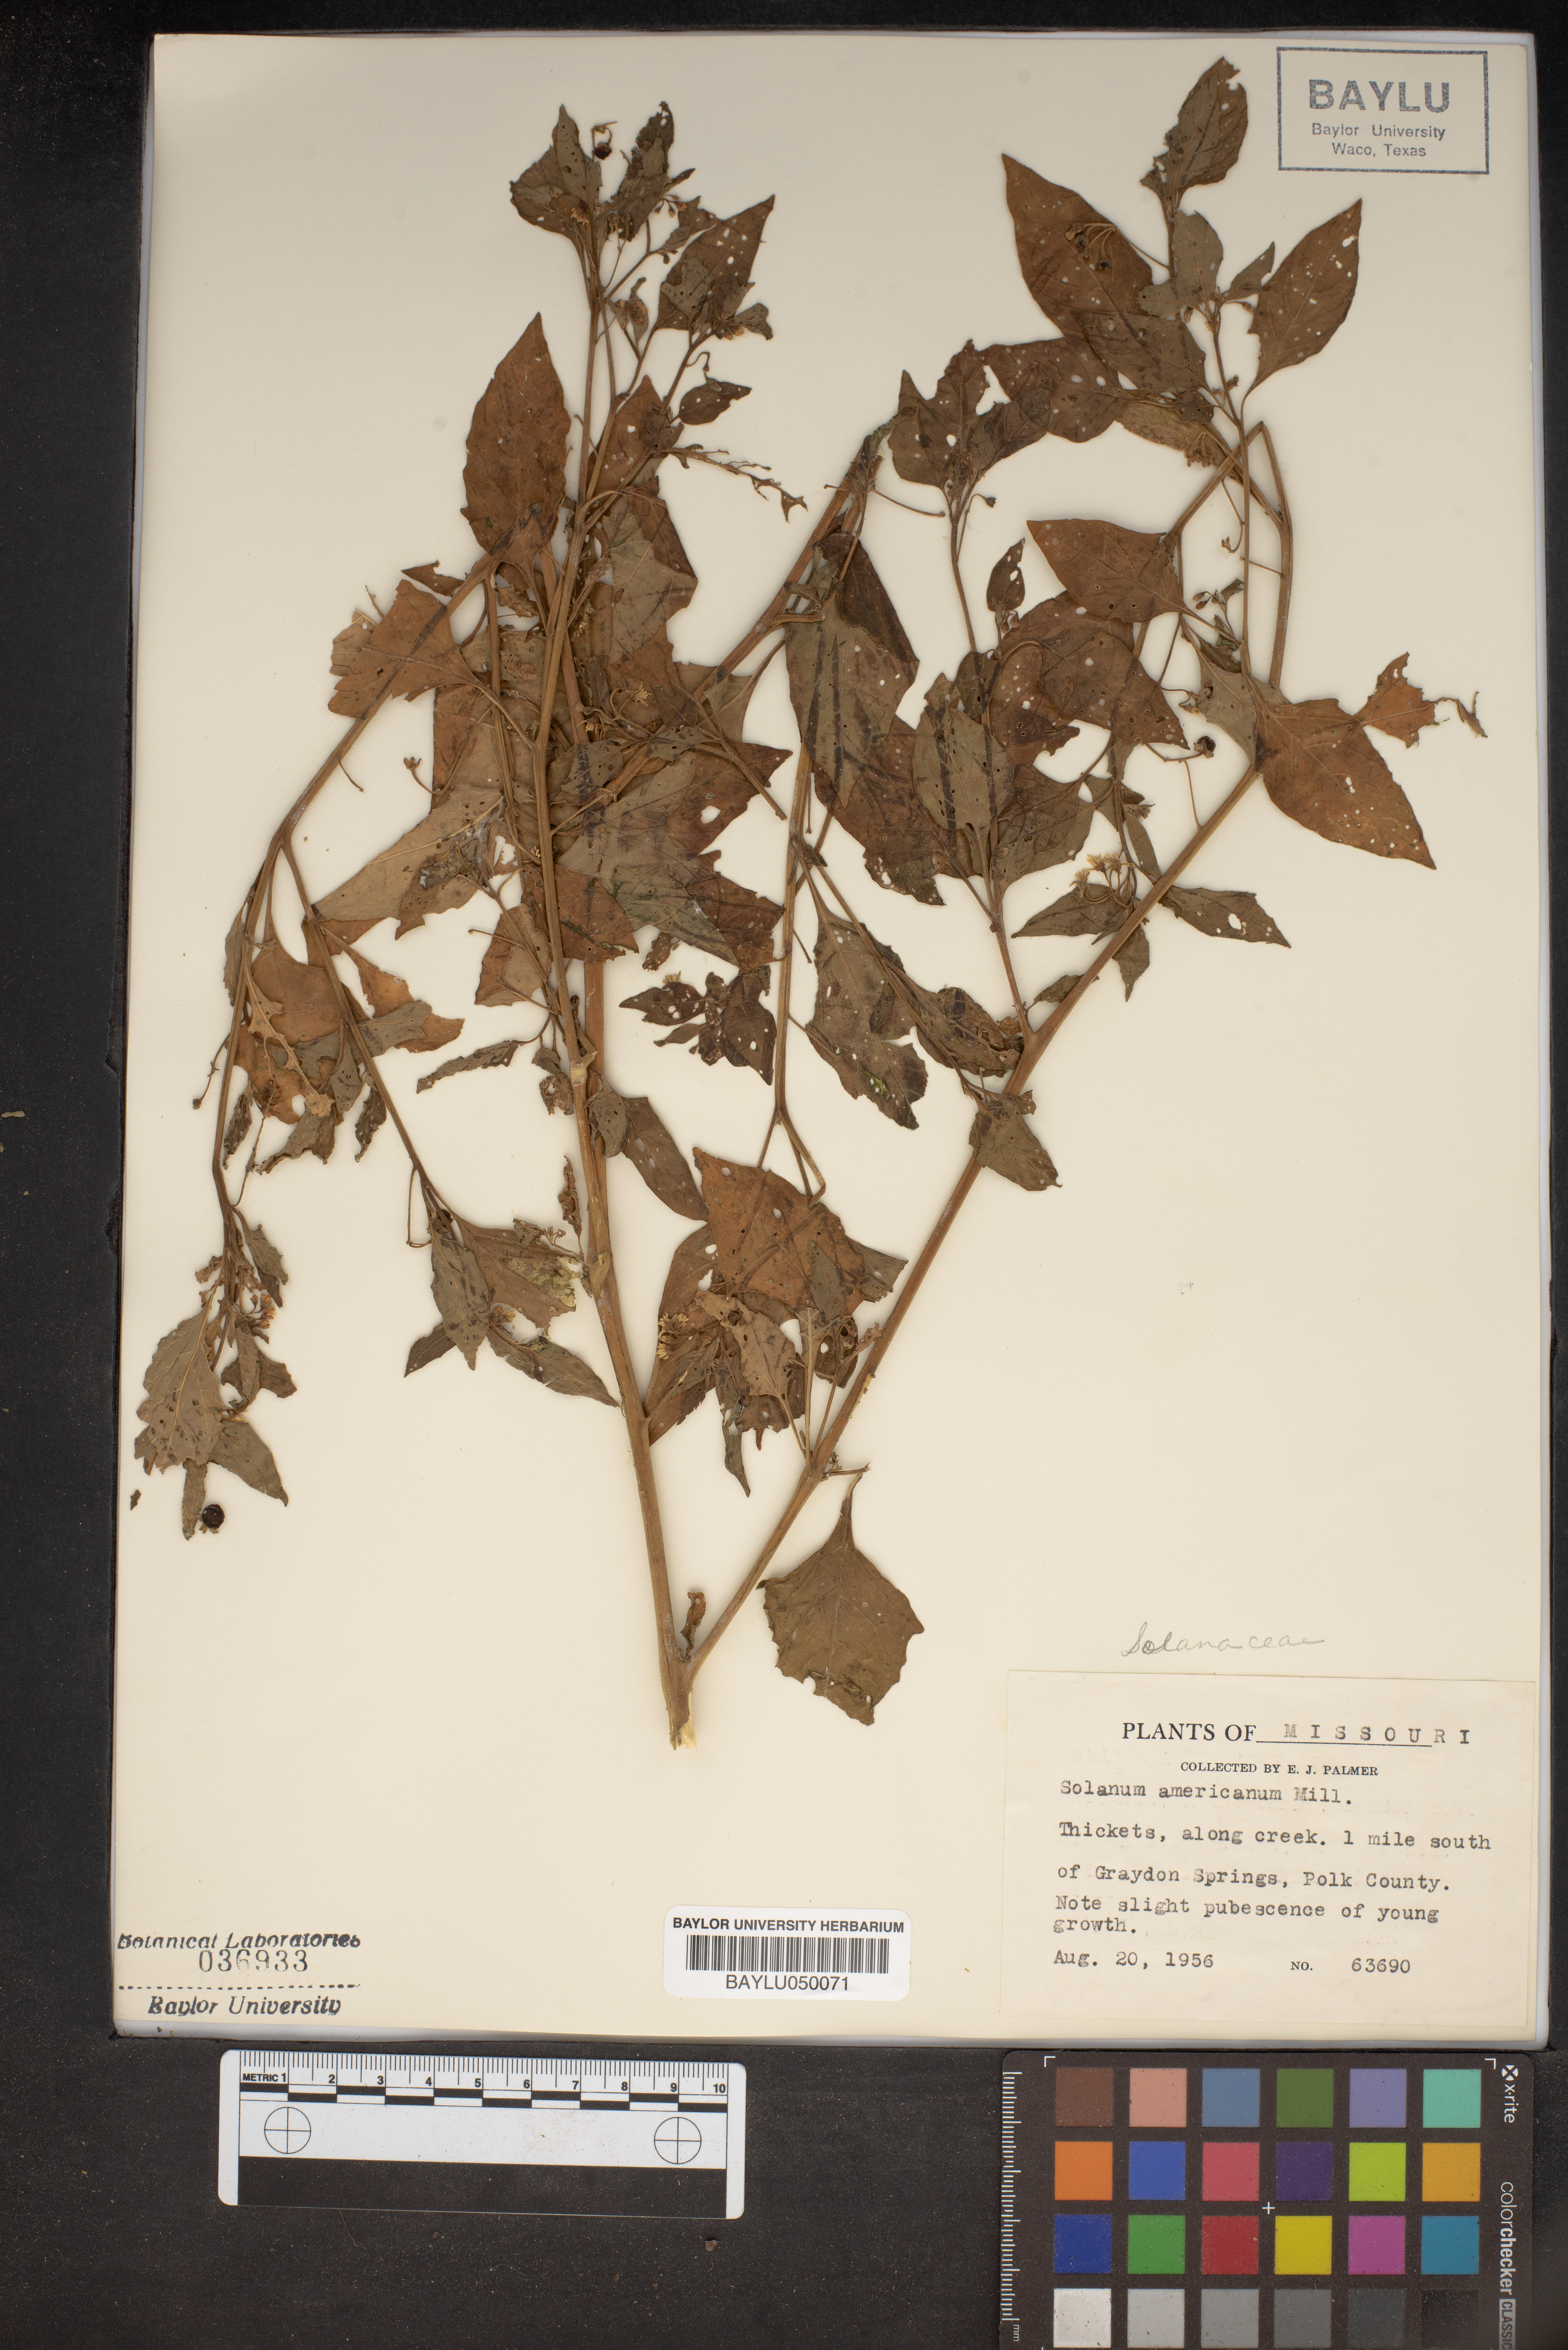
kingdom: Plantae
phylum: Tracheophyta
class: Magnoliopsida
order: Solanales
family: Solanaceae
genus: Solanum
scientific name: Solanum americanum
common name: American black nightshade
